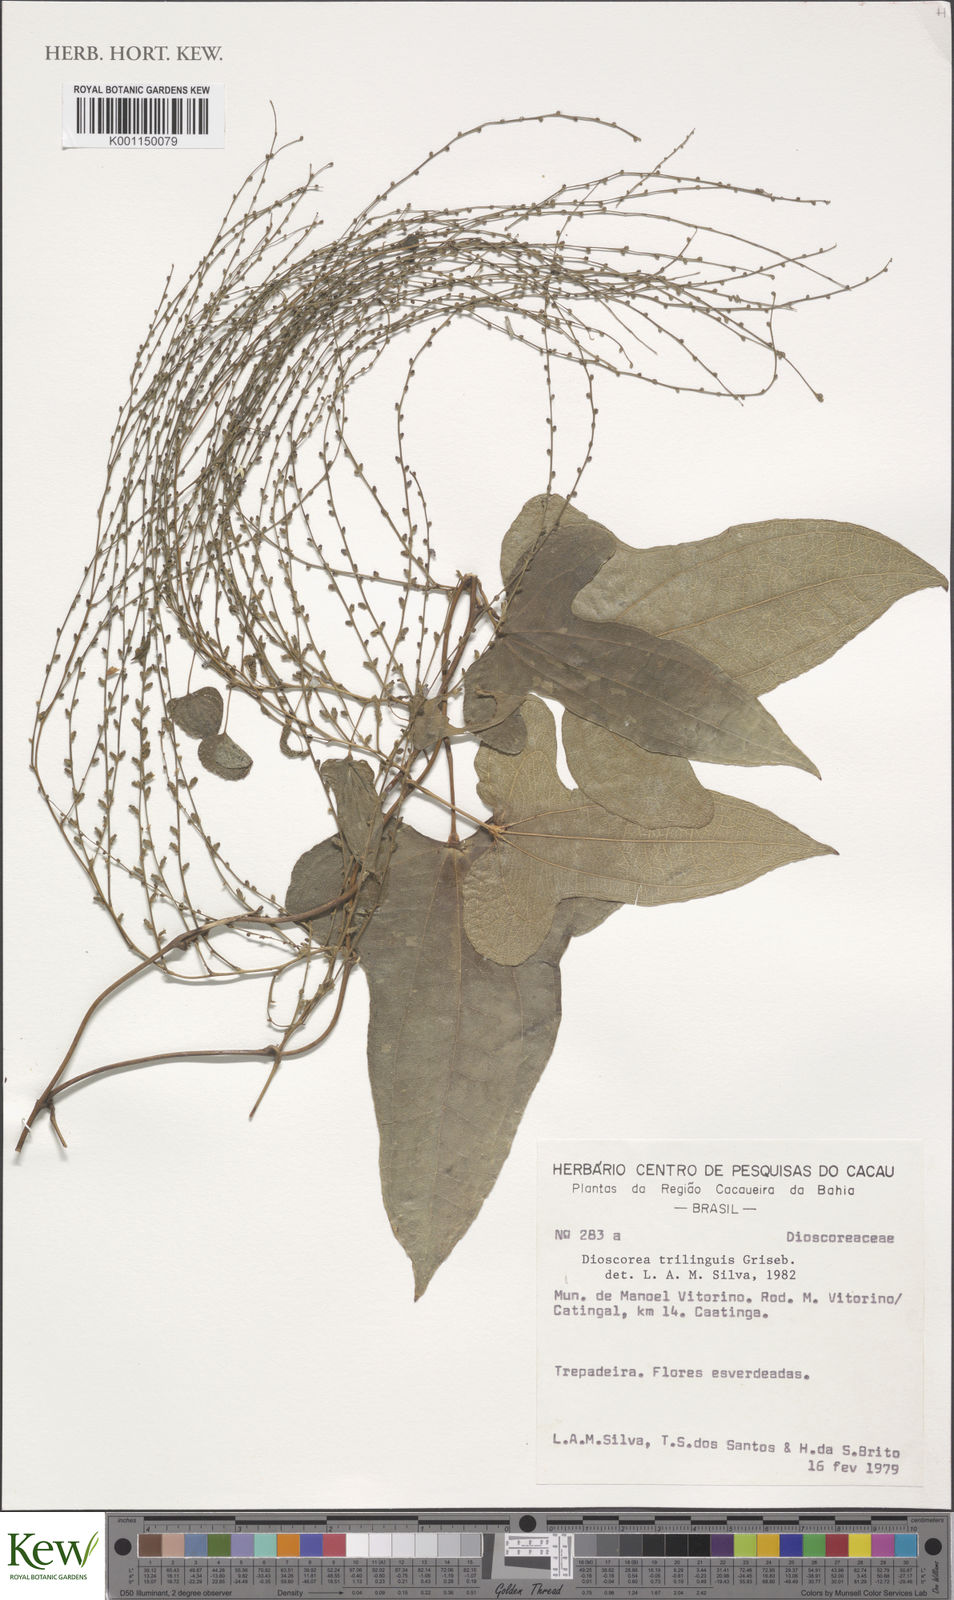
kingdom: Plantae
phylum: Tracheophyta
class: Liliopsida
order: Dioscoreales
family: Dioscoreaceae
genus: Dioscorea
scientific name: Dioscorea trilinguis
